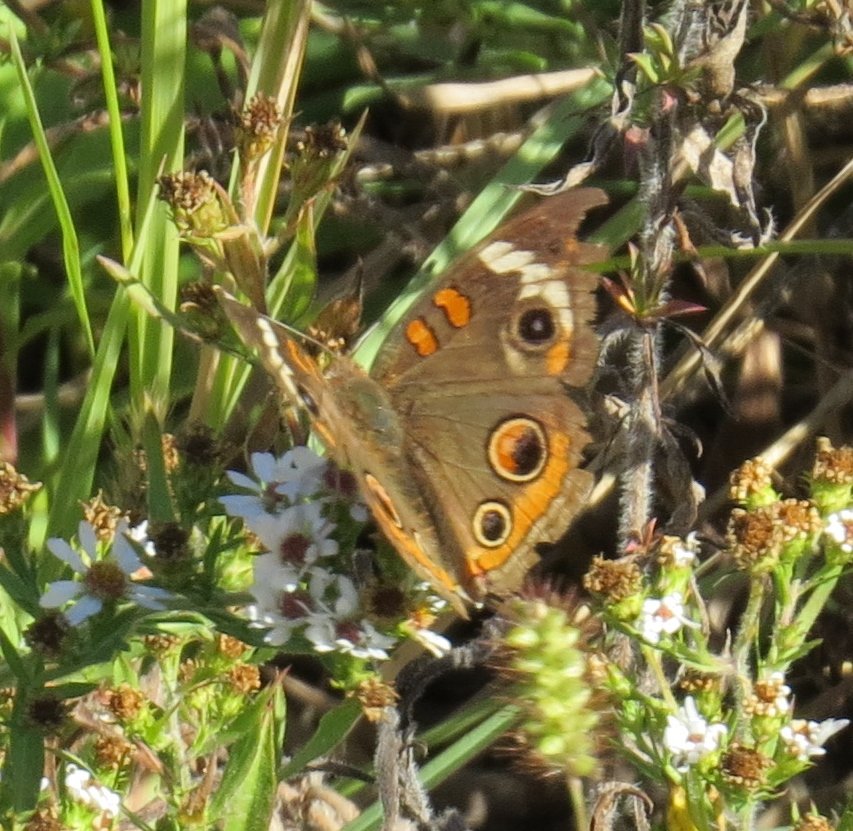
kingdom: Animalia
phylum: Arthropoda
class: Insecta
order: Lepidoptera
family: Nymphalidae
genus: Junonia
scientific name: Junonia coenia
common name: Common Buckeye
